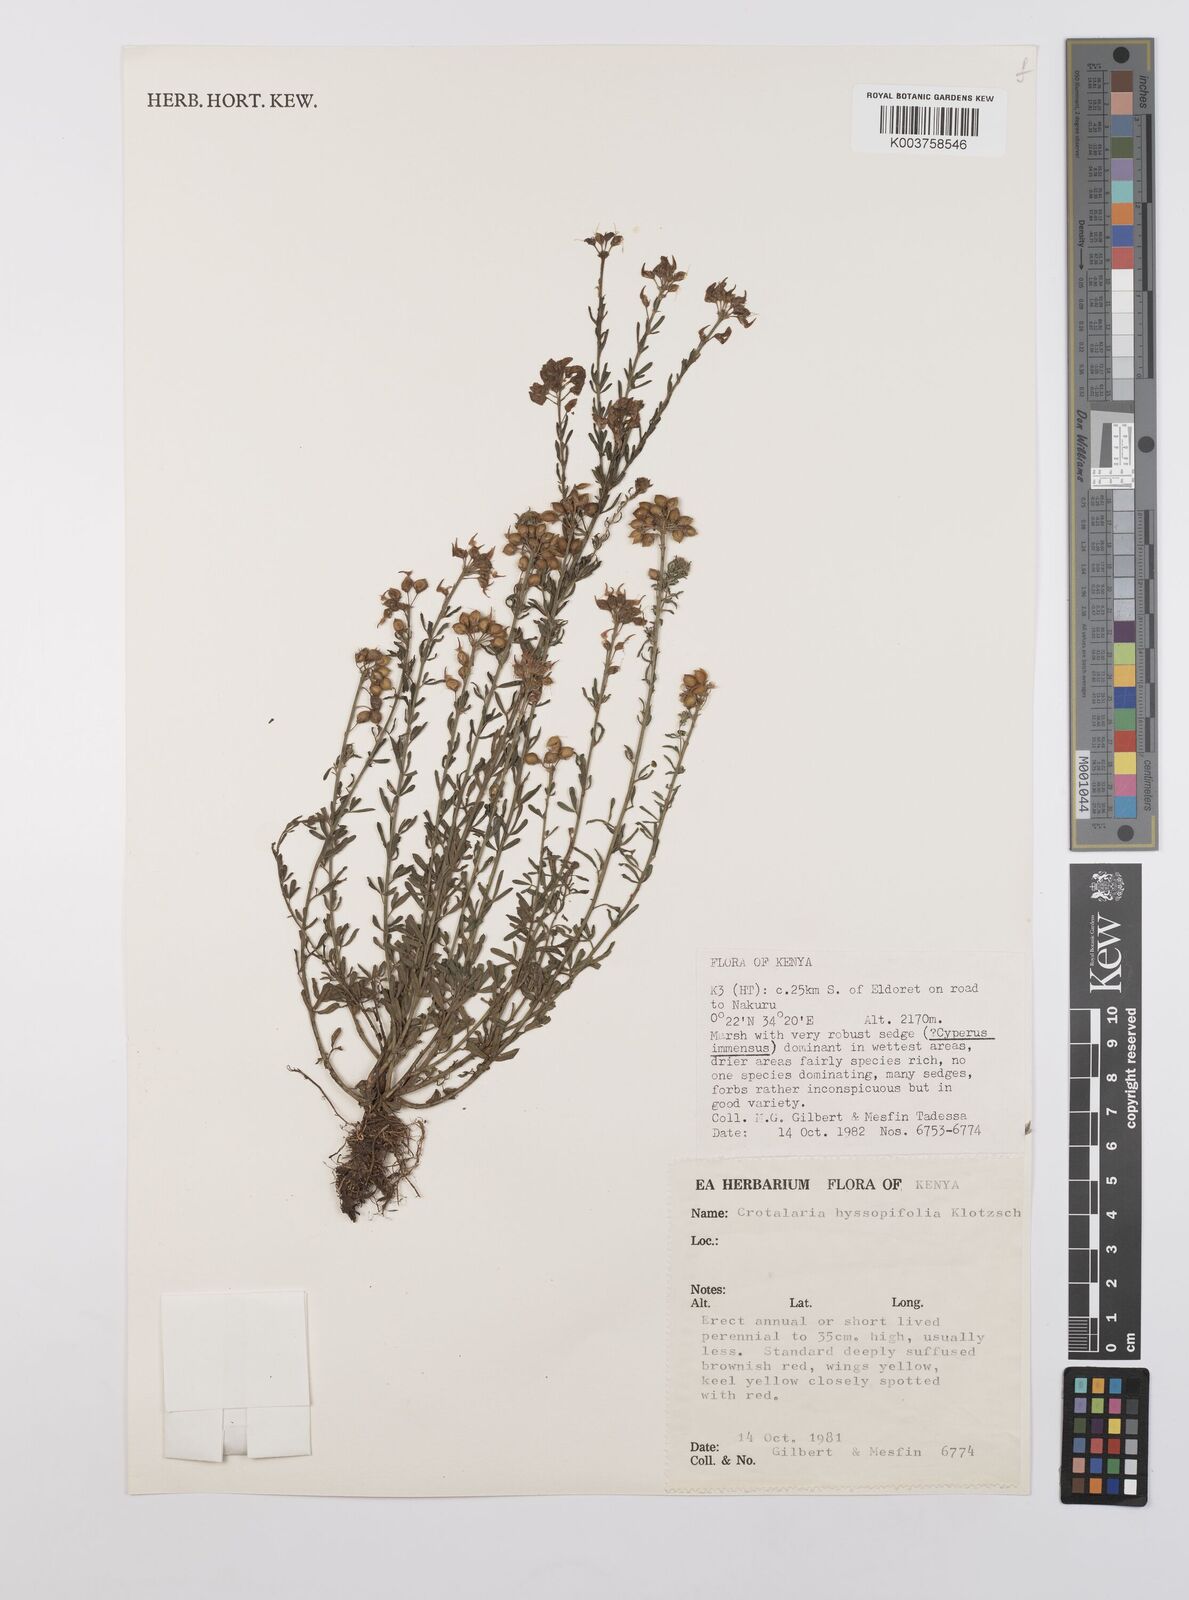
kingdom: Plantae
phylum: Tracheophyta
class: Magnoliopsida
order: Fabales
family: Fabaceae
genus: Crotalaria
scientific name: Crotalaria hyssopifolia
